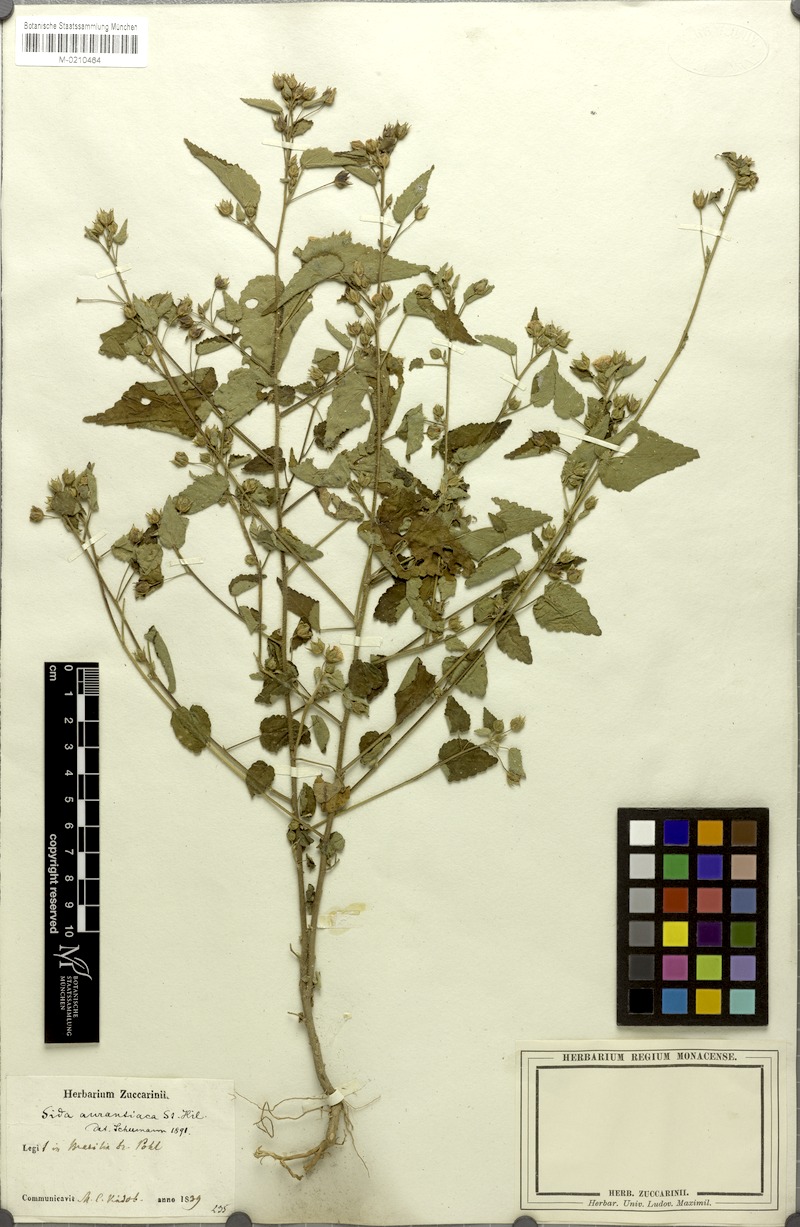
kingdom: Plantae
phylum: Tracheophyta
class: Magnoliopsida
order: Malvales
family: Malvaceae
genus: Sida
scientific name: Sida martiana
